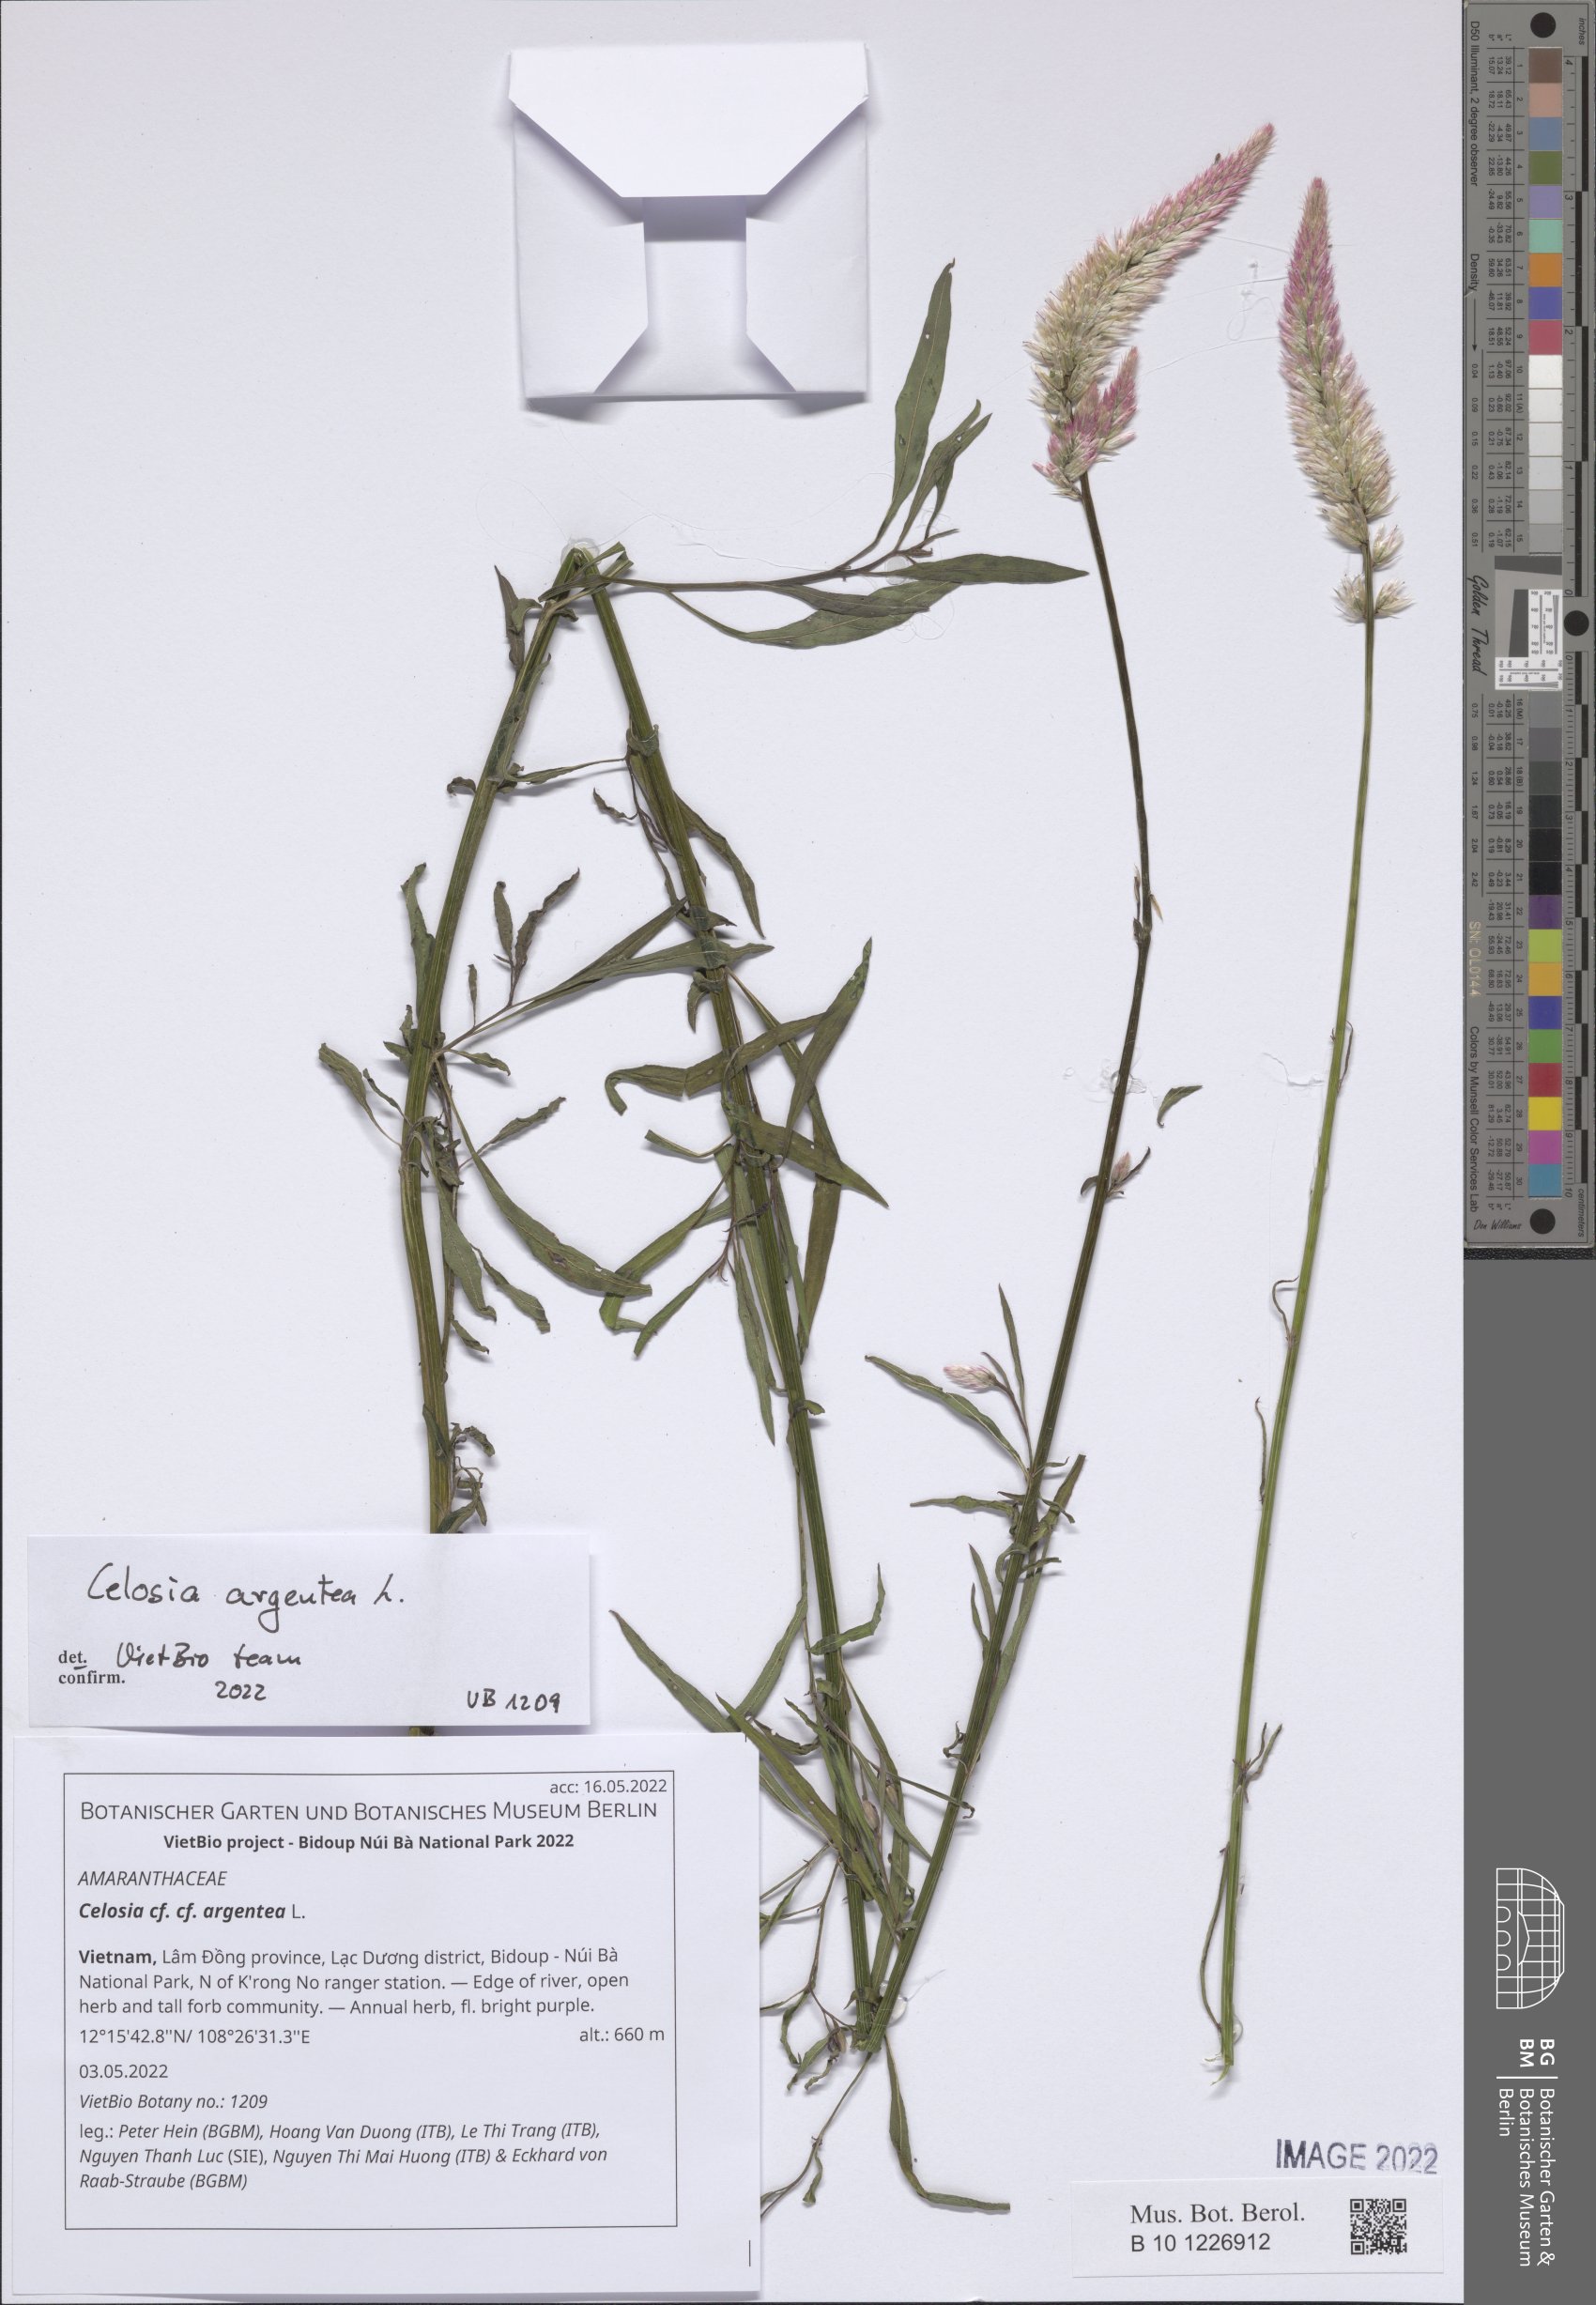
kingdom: Plantae
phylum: Tracheophyta
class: Magnoliopsida
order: Caryophyllales
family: Amaranthaceae
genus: Celosia
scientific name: Celosia argentea
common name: Feather cockscomb
